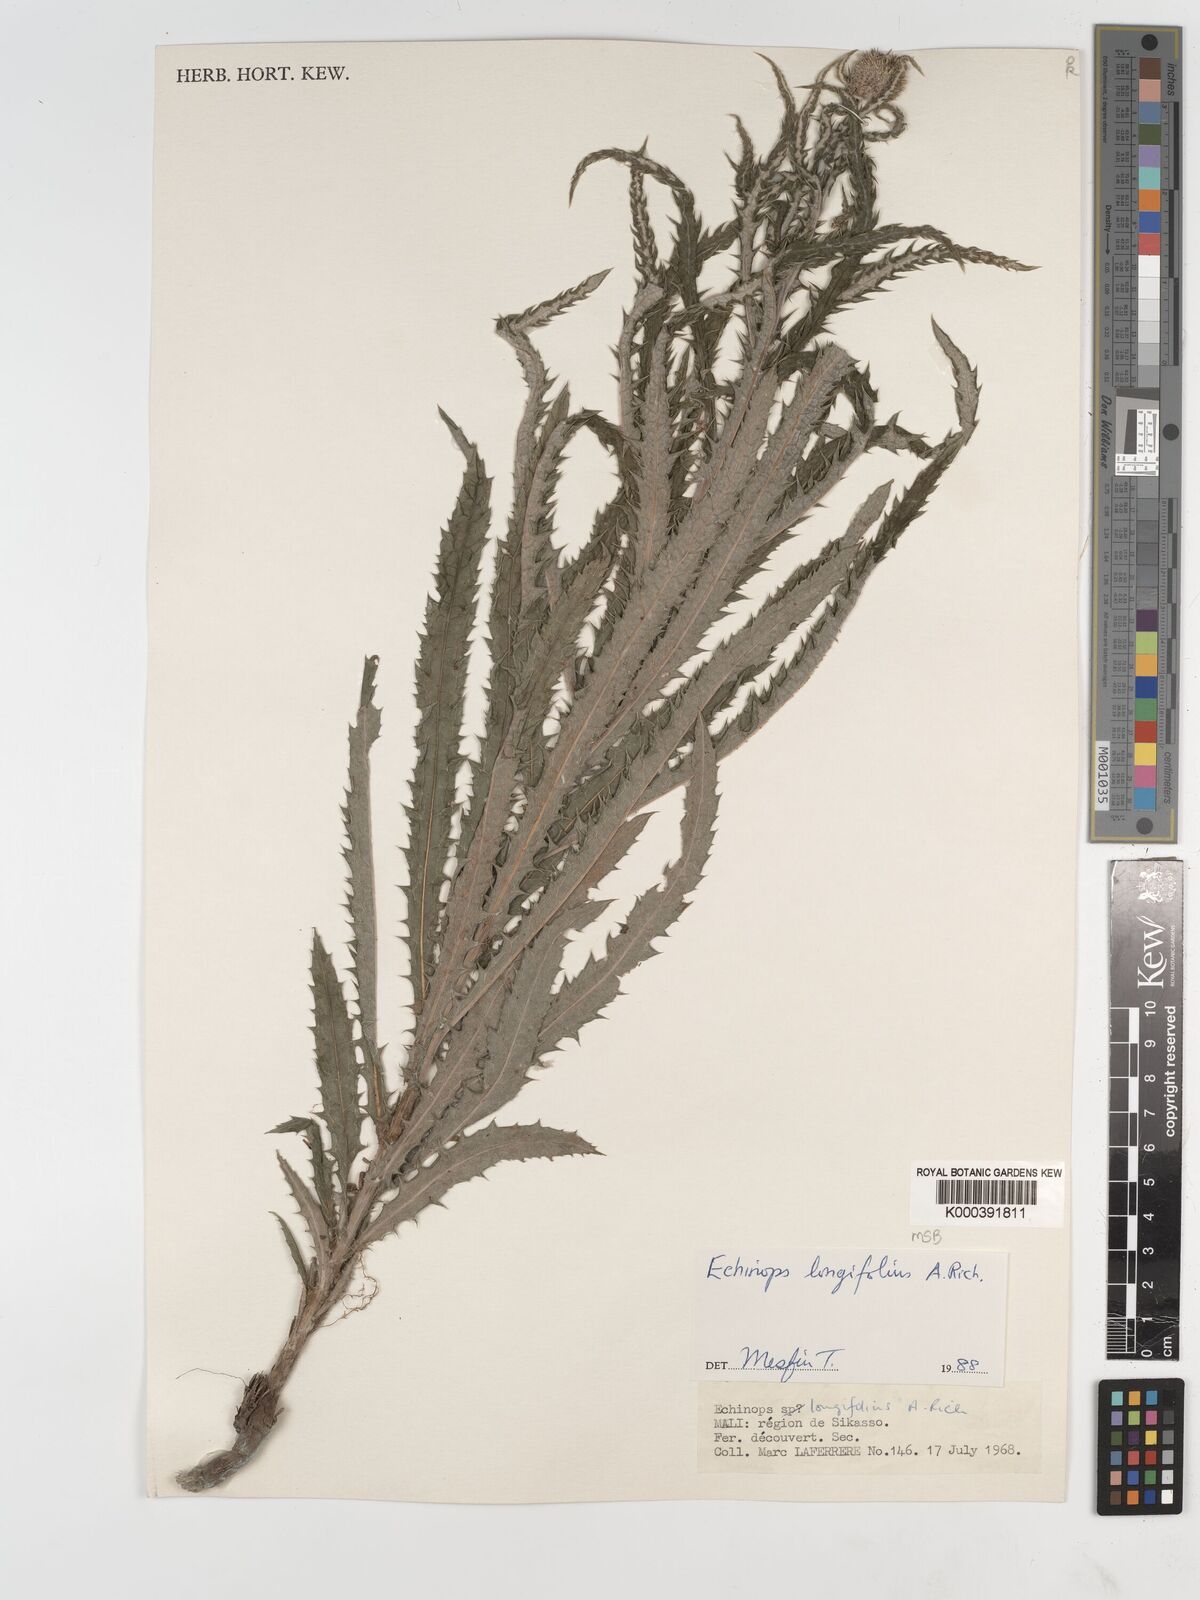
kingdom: Plantae
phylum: Tracheophyta
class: Magnoliopsida
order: Asterales
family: Asteraceae
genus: Echinops
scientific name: Echinops longifolius
